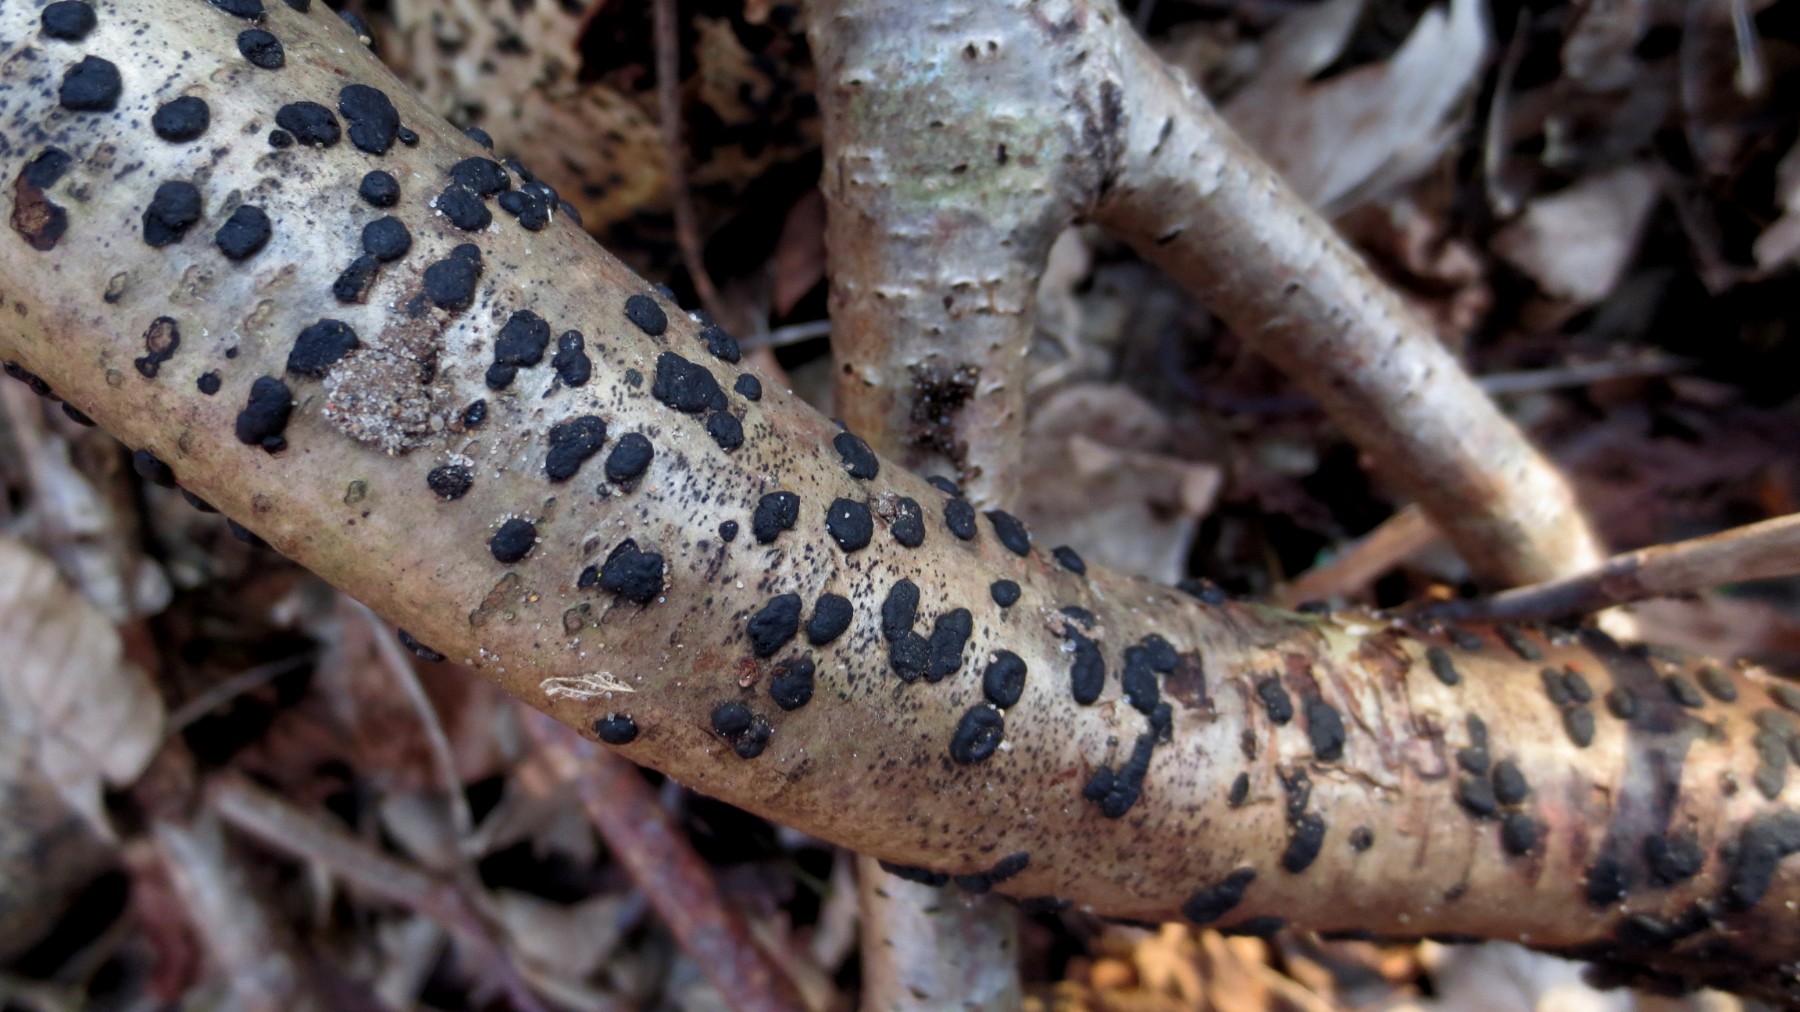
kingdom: Fungi
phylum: Ascomycota
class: Sordariomycetes
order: Xylariales
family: Hypoxylaceae
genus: Hypoxylon
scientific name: Hypoxylon fuscum
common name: kegleformet kulbær
